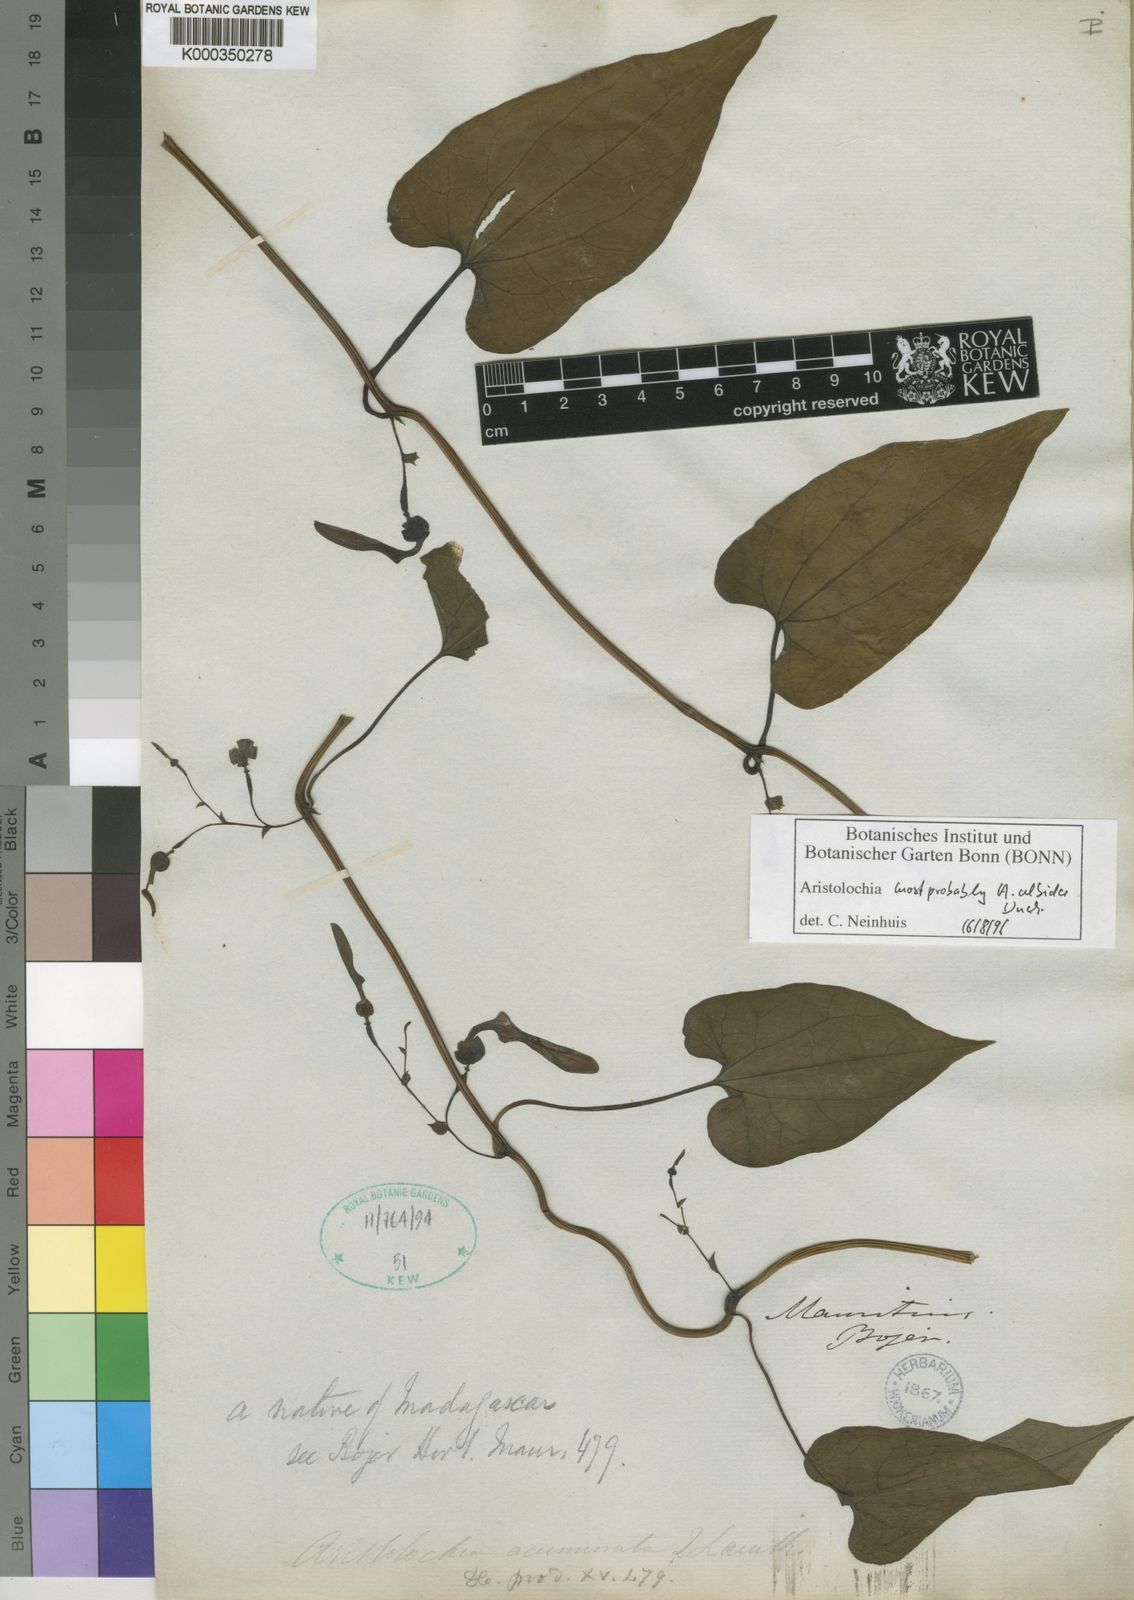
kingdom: Plantae
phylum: Tracheophyta
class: Magnoliopsida
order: Piperales
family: Aristolochiaceae
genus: Aristolochia
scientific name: Aristolochia albida
